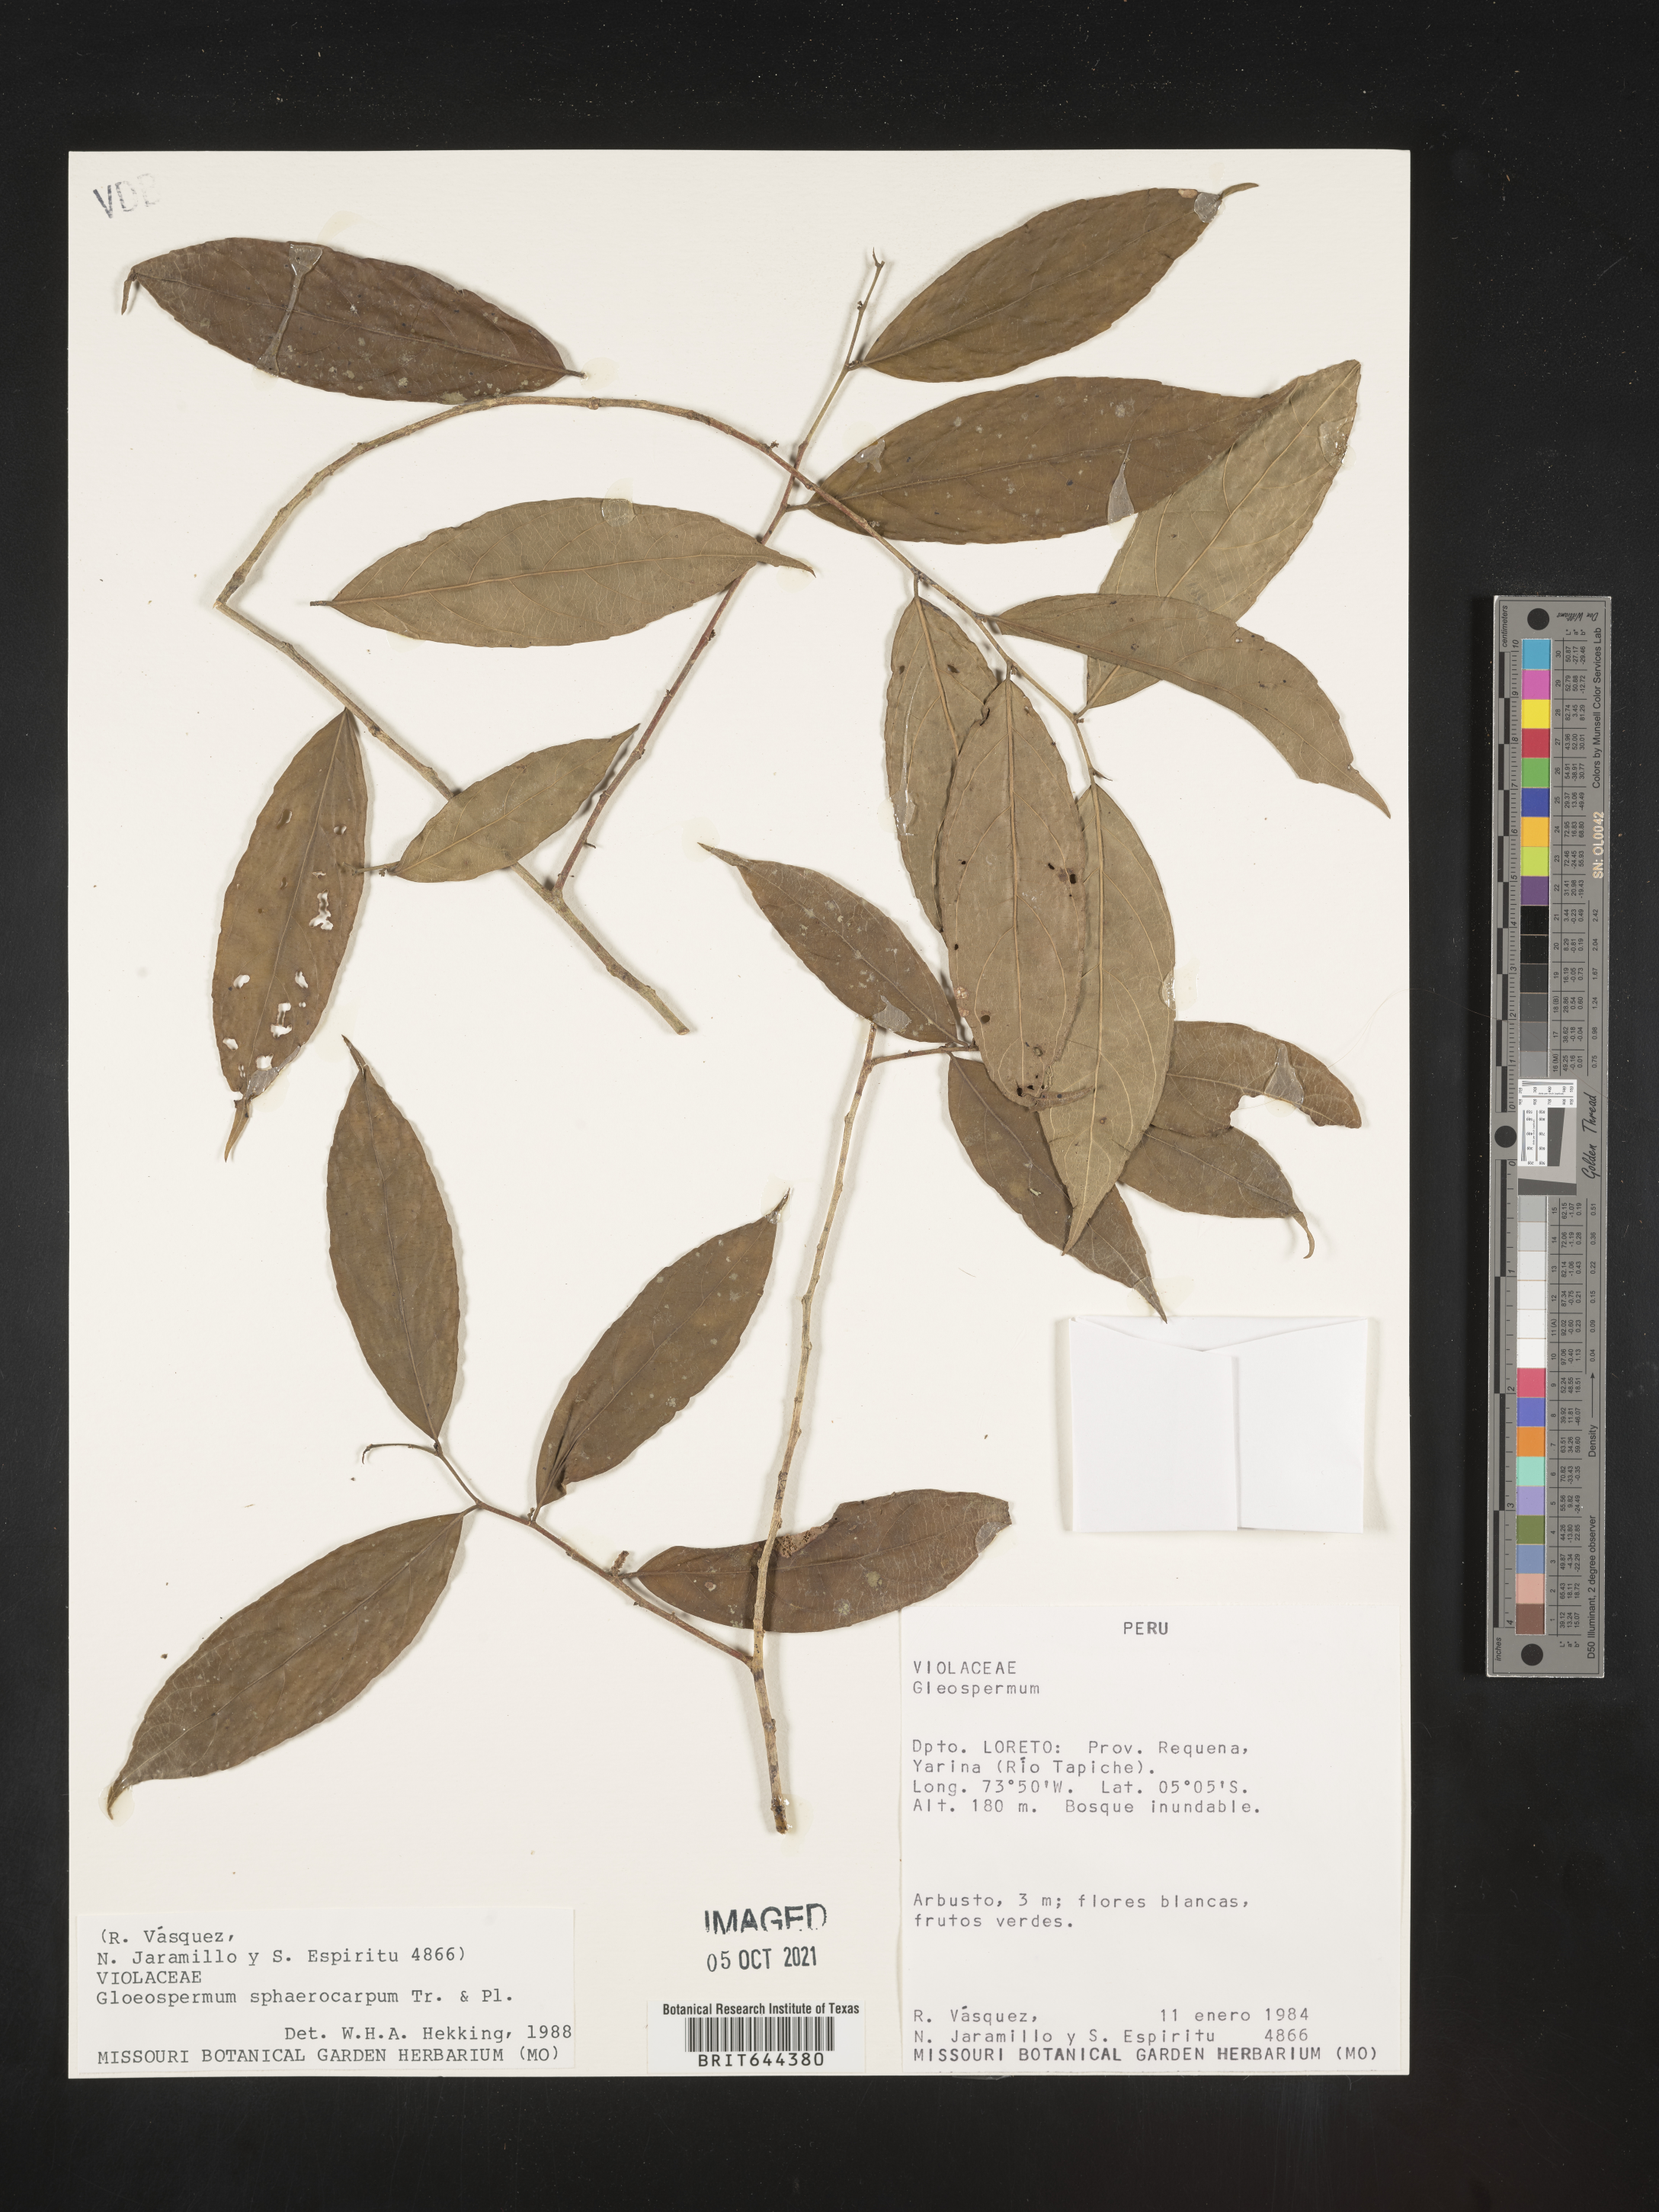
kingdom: Plantae
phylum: Tracheophyta
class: Magnoliopsida
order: Malpighiales
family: Violaceae
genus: Gloeospermum
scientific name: Gloeospermum
